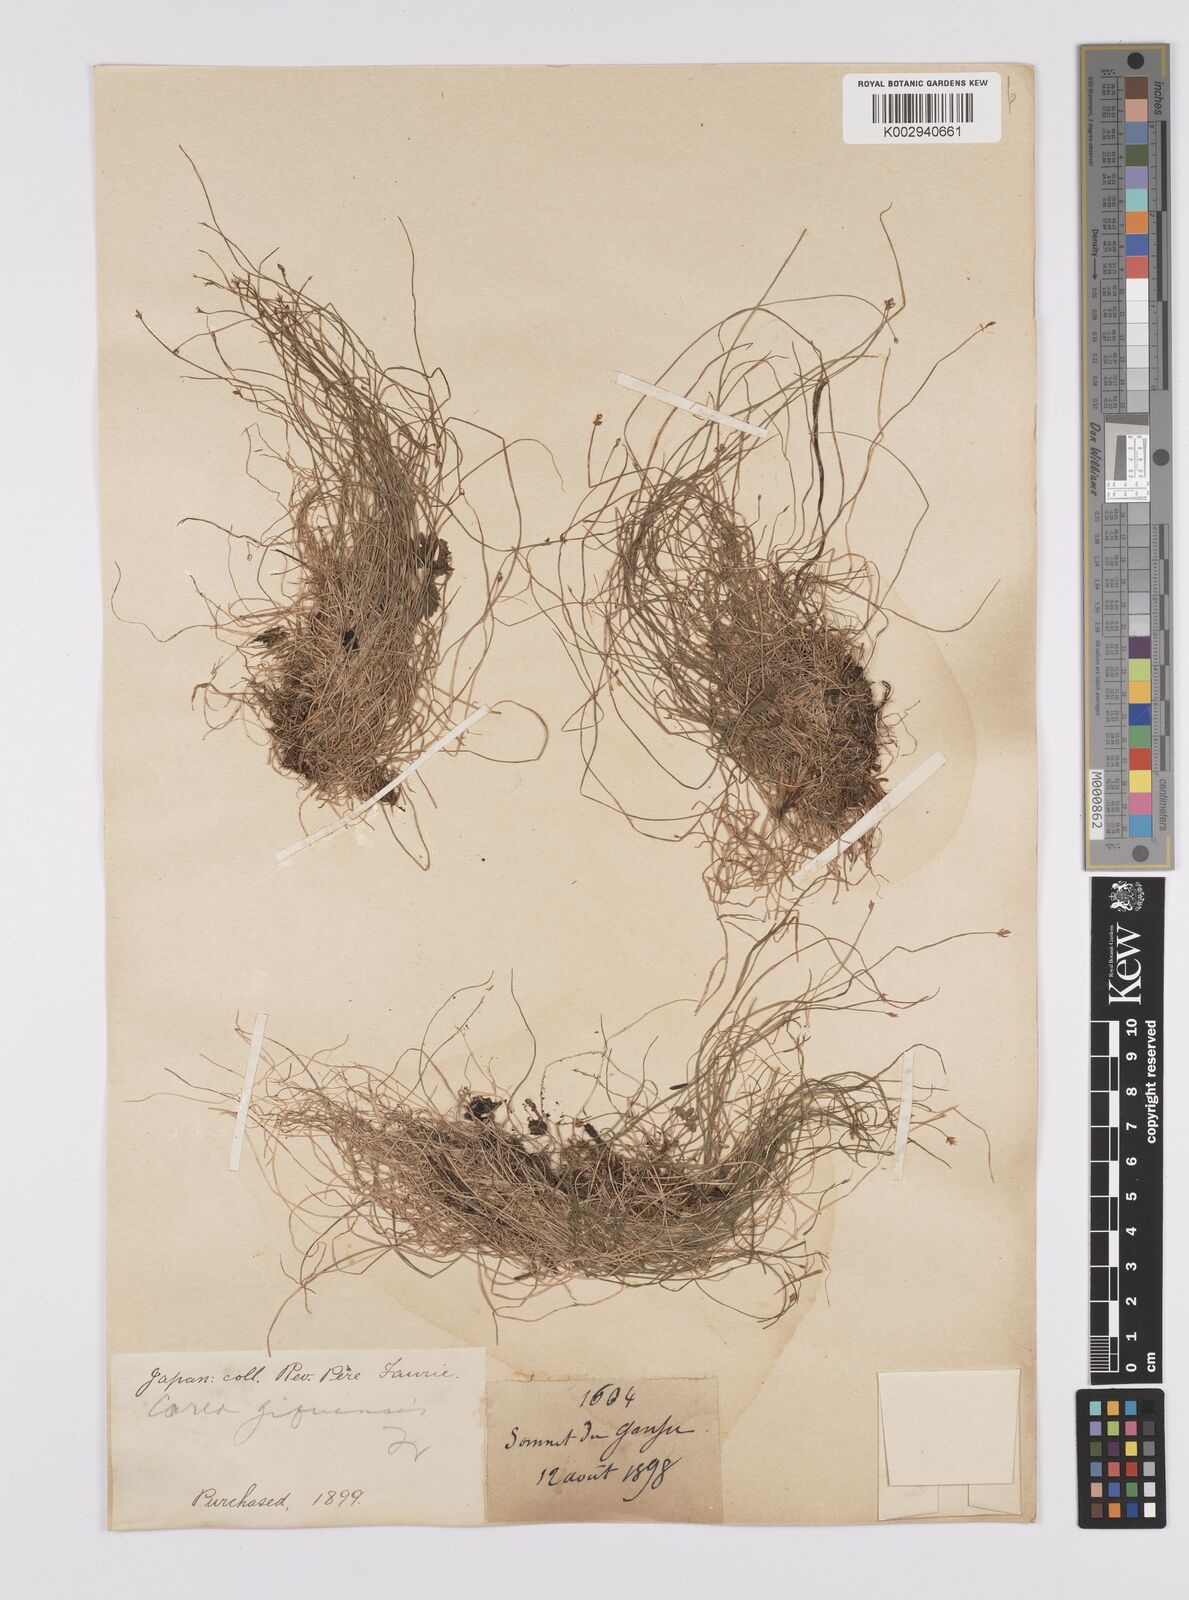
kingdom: Plantae
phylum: Tracheophyta
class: Liliopsida
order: Poales
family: Cyperaceae
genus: Carex
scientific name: Carex gifuensis
